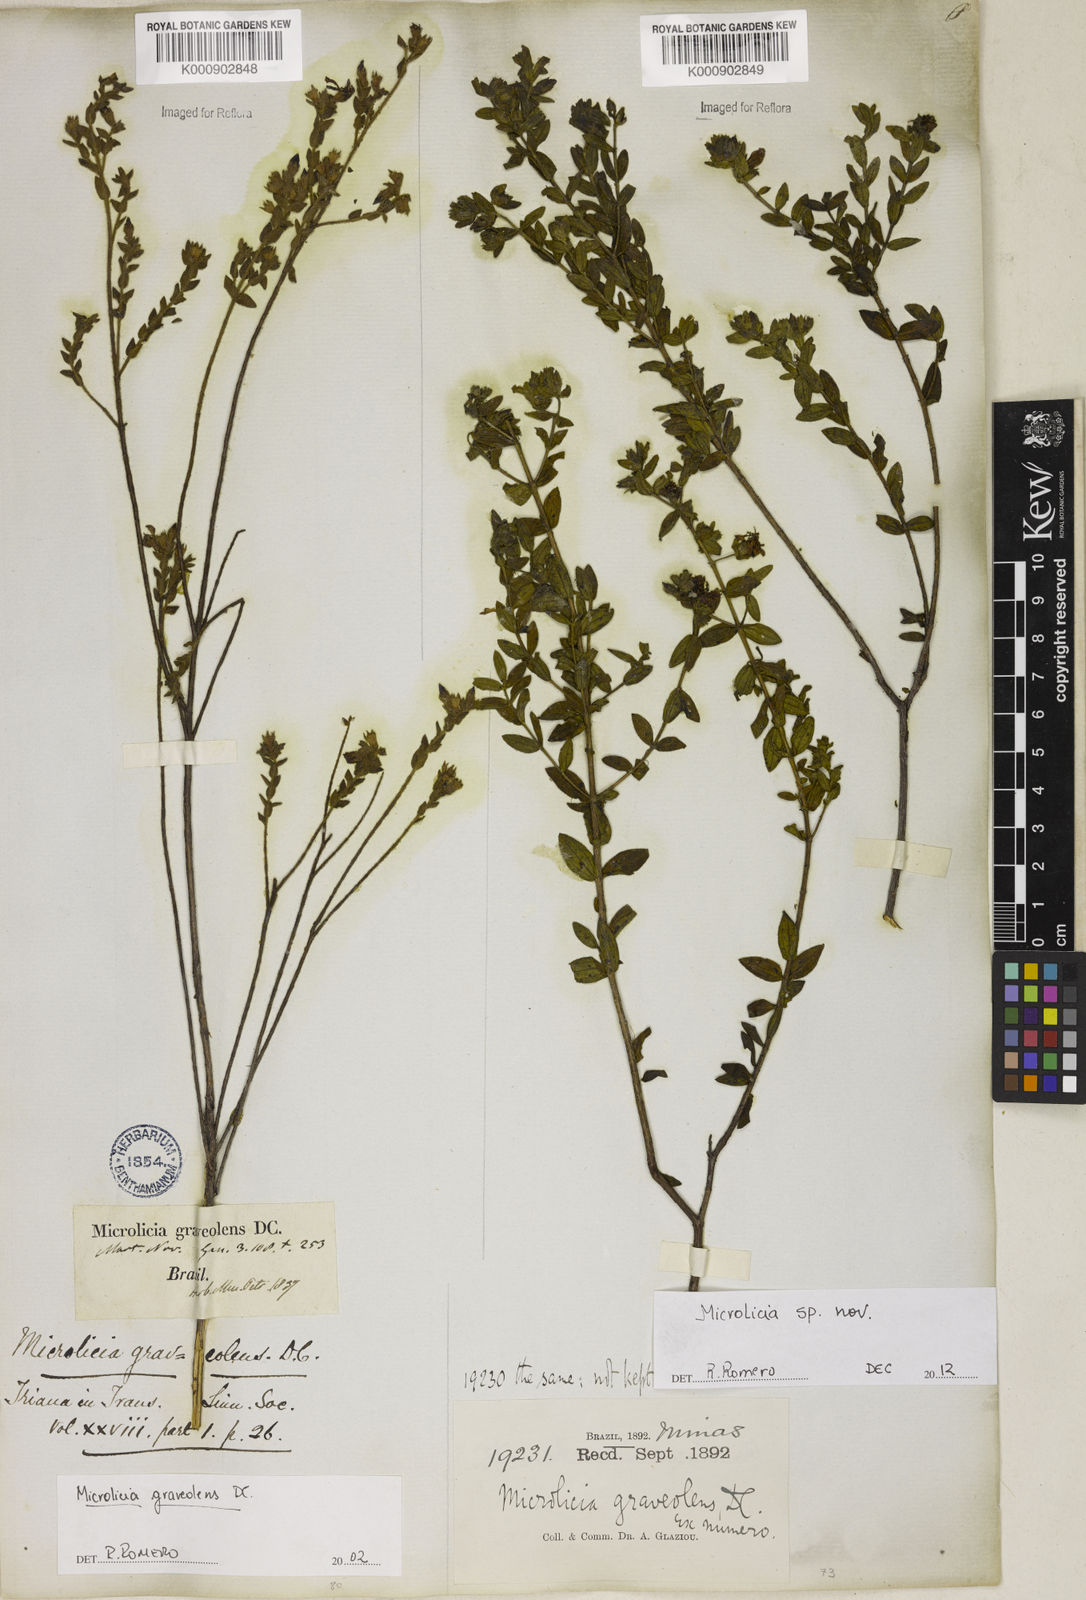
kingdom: Plantae
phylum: Tracheophyta
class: Magnoliopsida
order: Malpighiales
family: Podostemaceae
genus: Diamantina
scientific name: Diamantina
